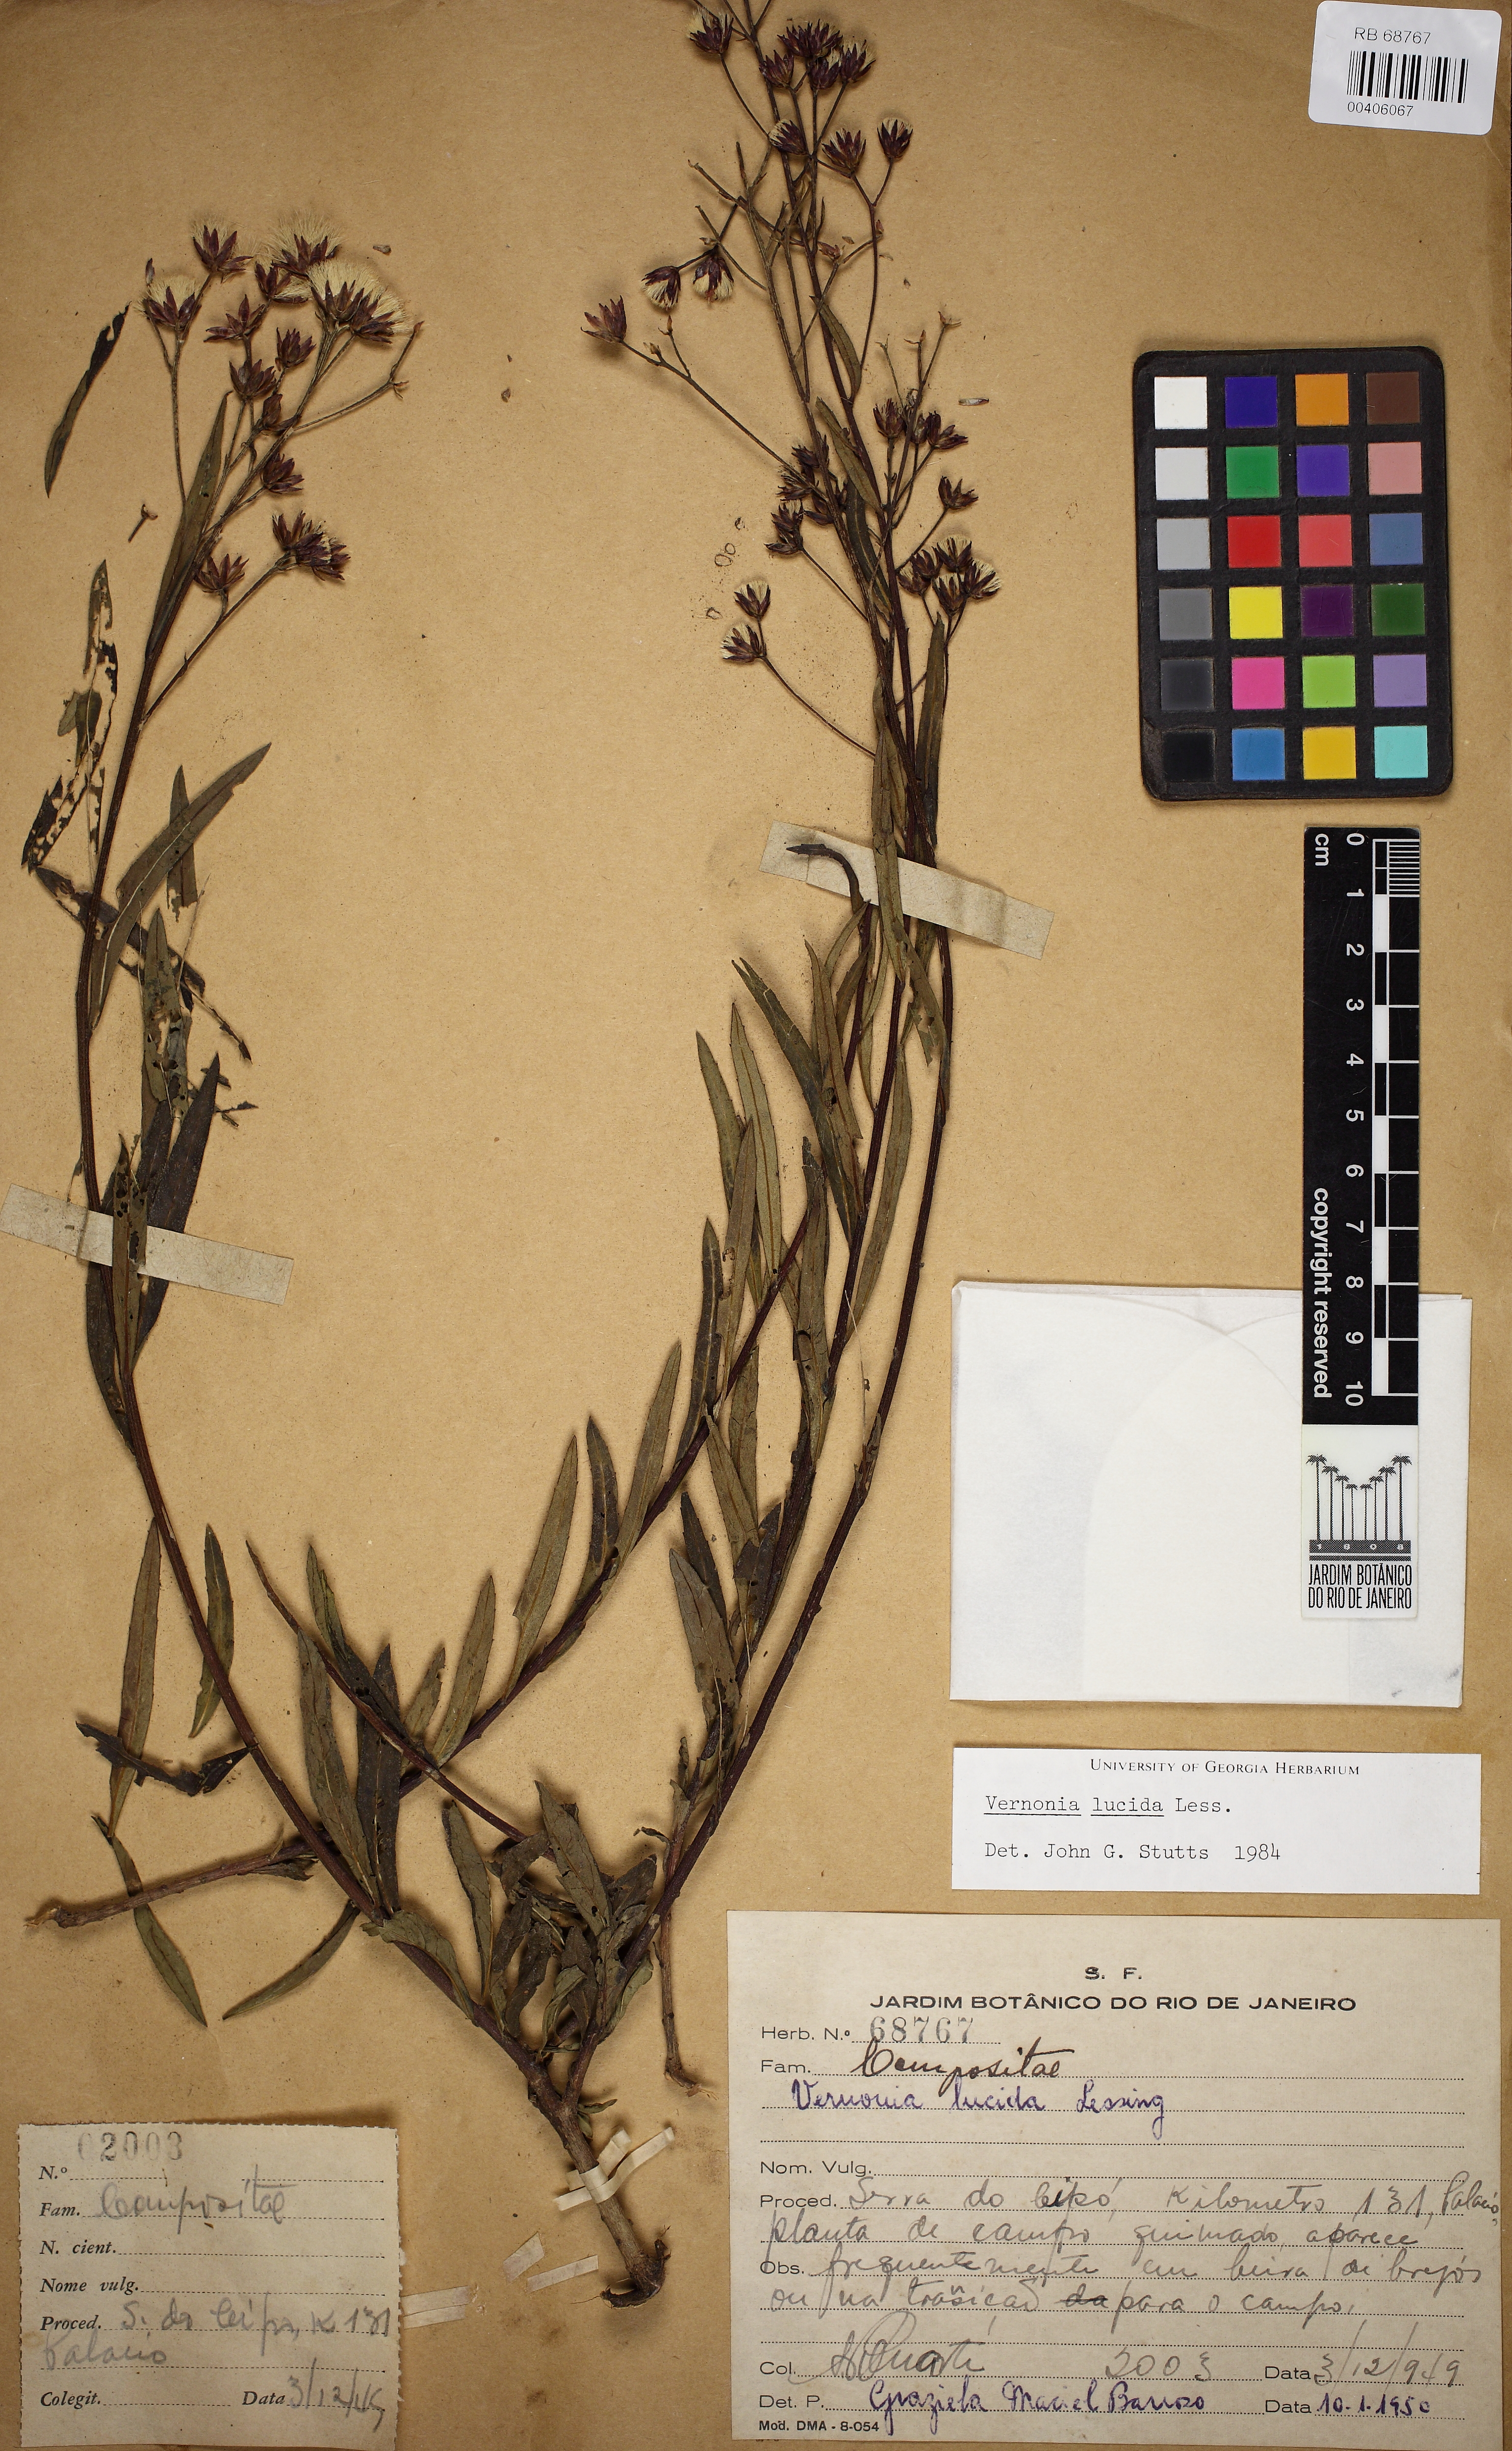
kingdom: Plantae
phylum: Tracheophyta
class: Magnoliopsida
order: Asterales
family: Asteraceae
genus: Vernonanthura
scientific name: Vernonanthura lucida
